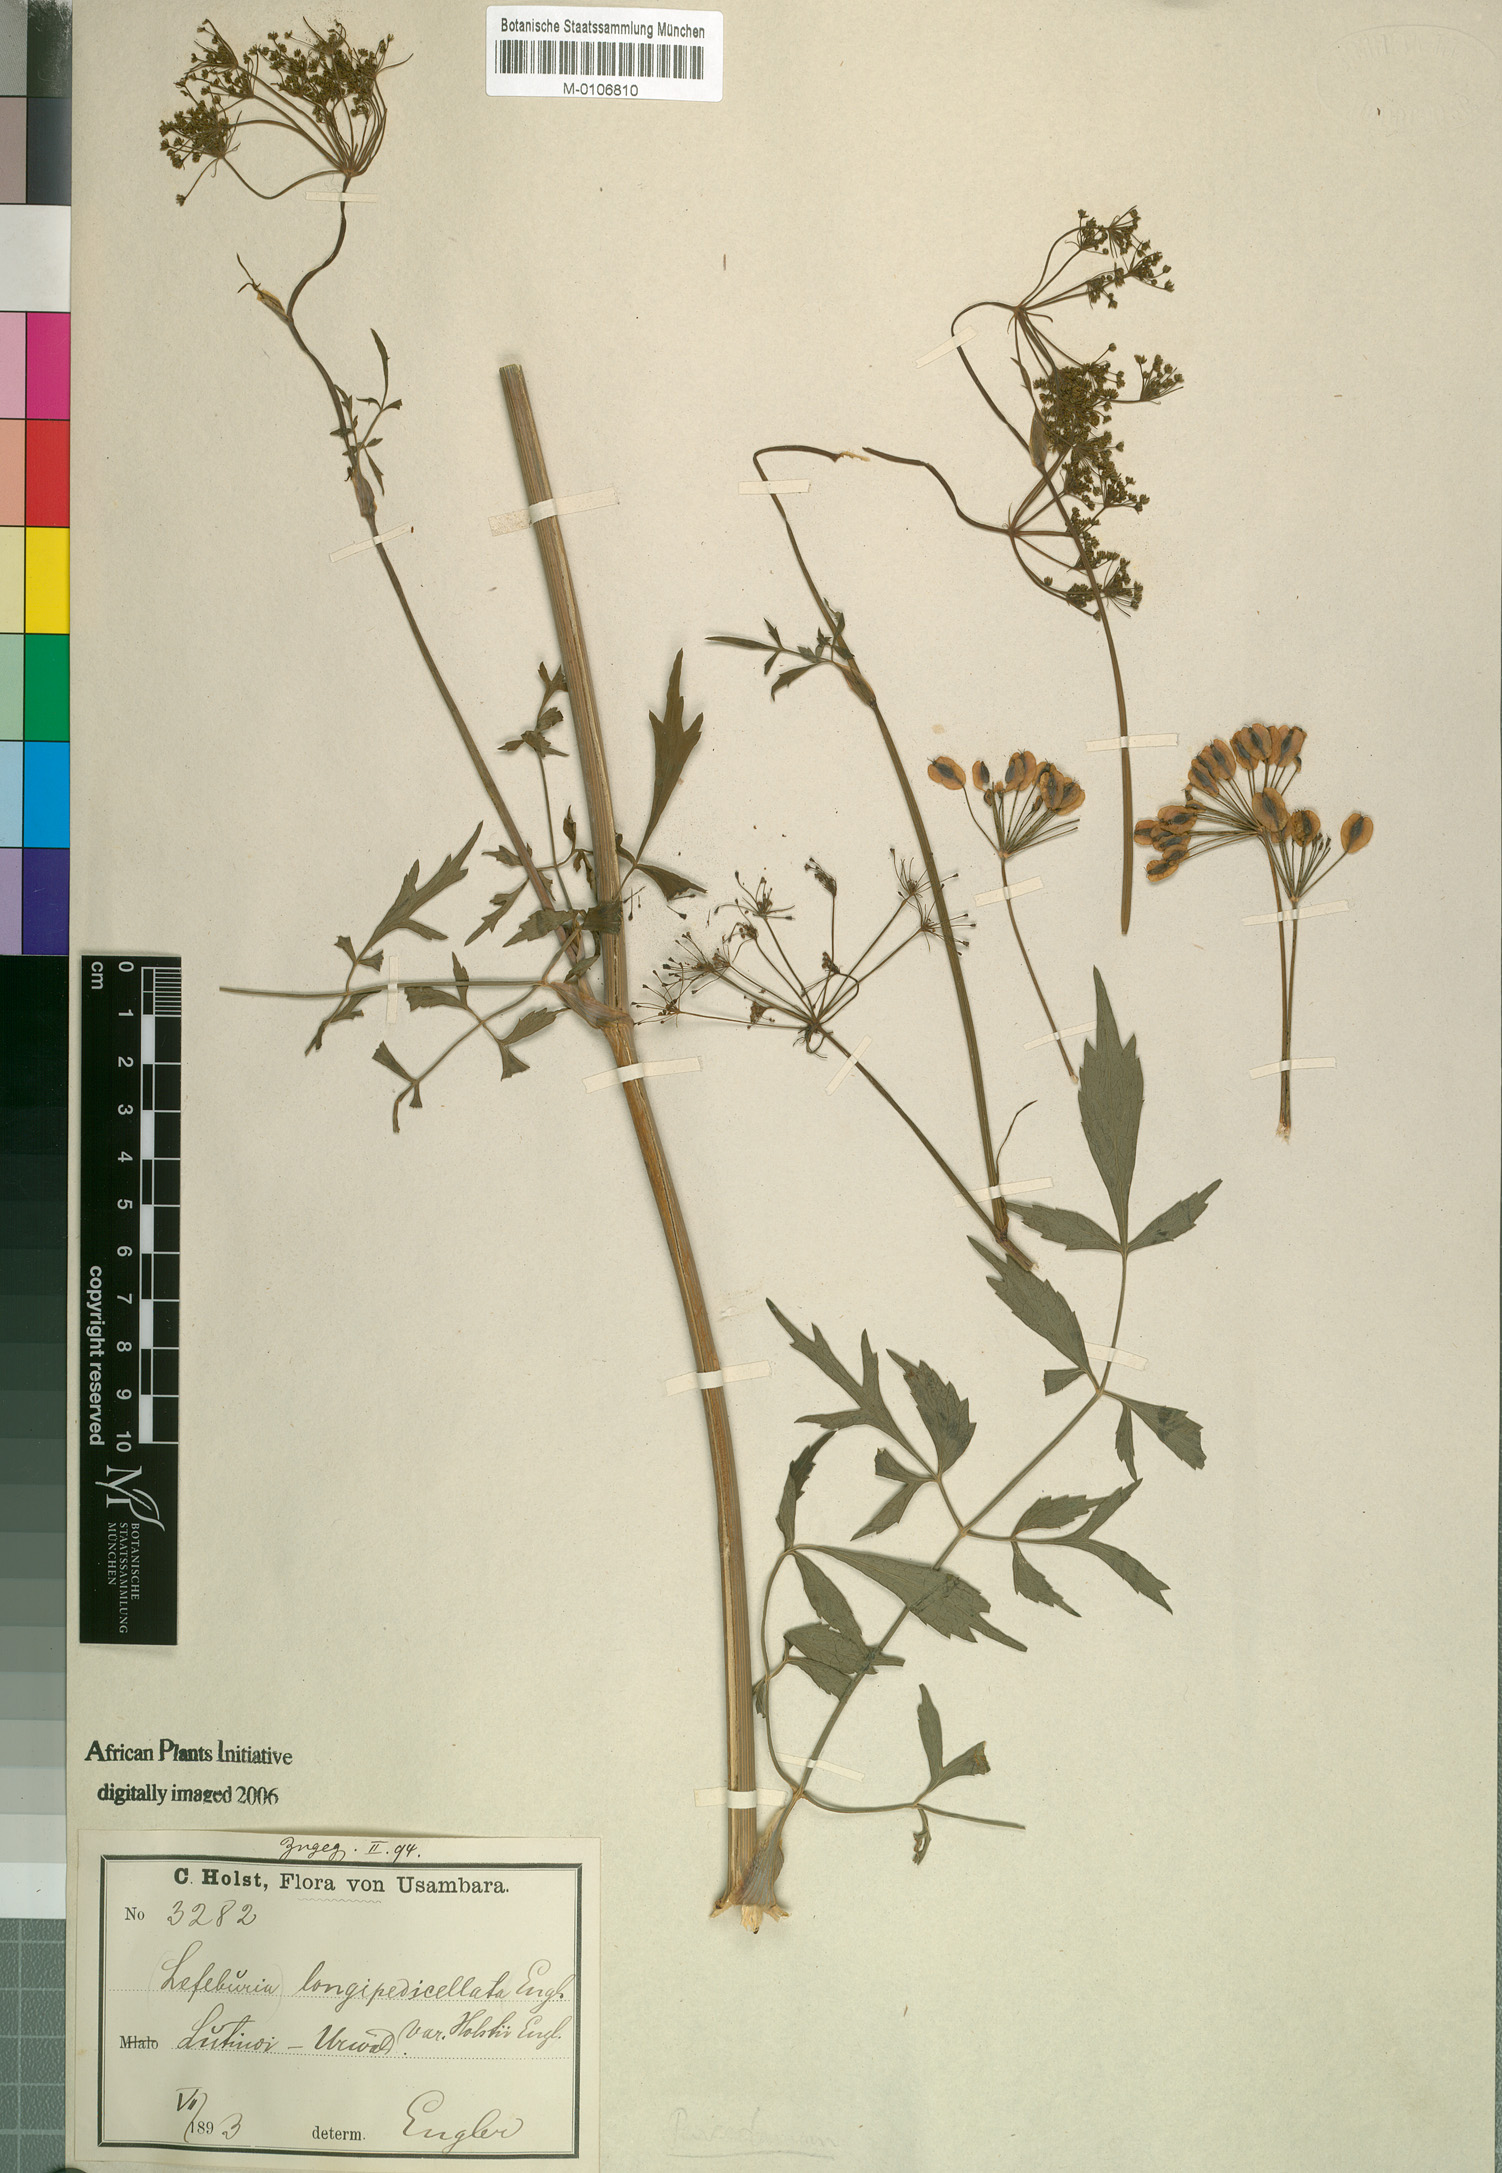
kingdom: Plantae
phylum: Tracheophyta
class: Magnoliopsida
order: Apiales
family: Apiaceae
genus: Lefebvrea
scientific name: Lefebvrea longipedicellata
